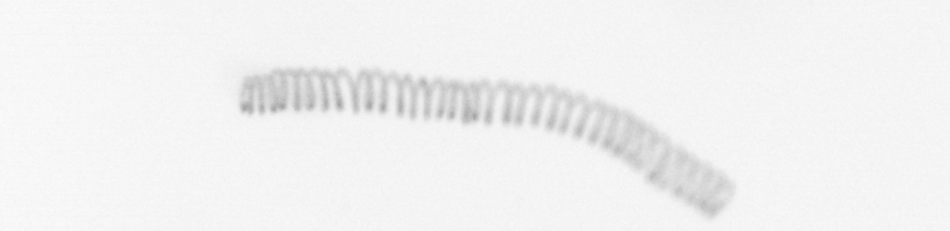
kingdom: Chromista
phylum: Ochrophyta
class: Bacillariophyceae
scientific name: Bacillariophyceae
